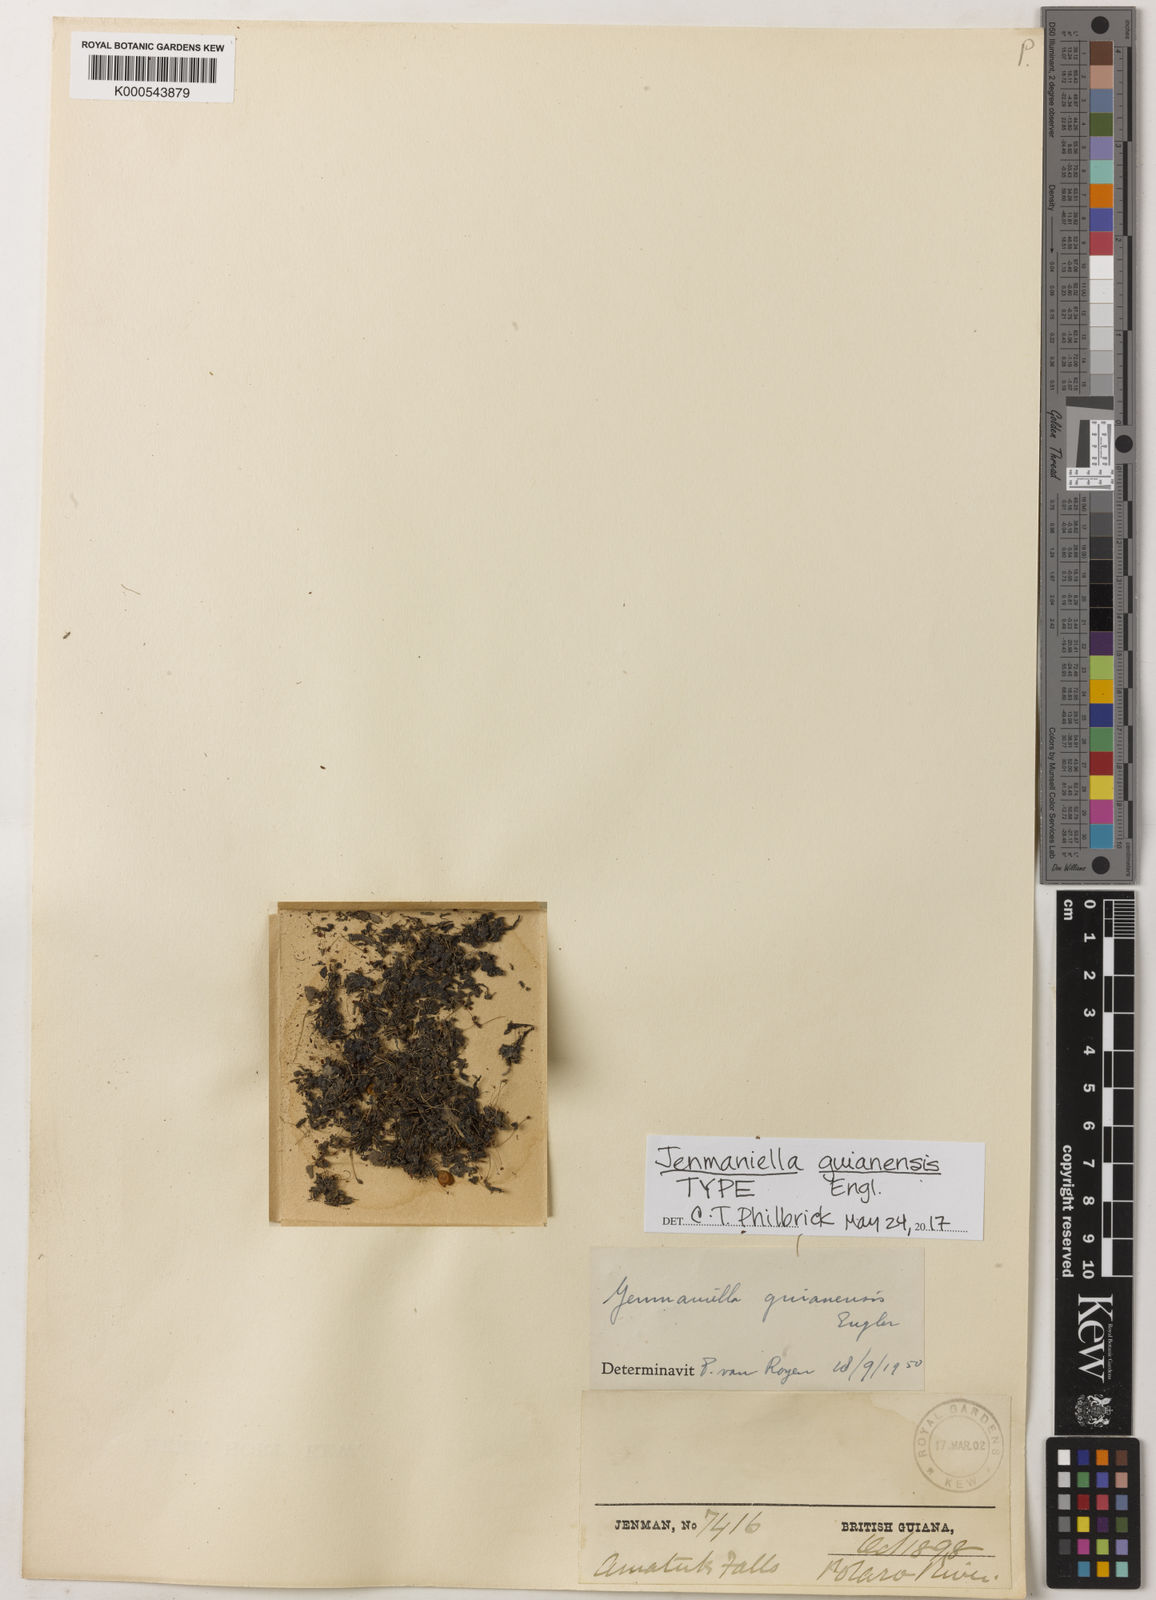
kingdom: Plantae
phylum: Tracheophyta
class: Magnoliopsida
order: Malpighiales
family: Podostemaceae
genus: Lophogyne
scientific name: Lophogyne varians
